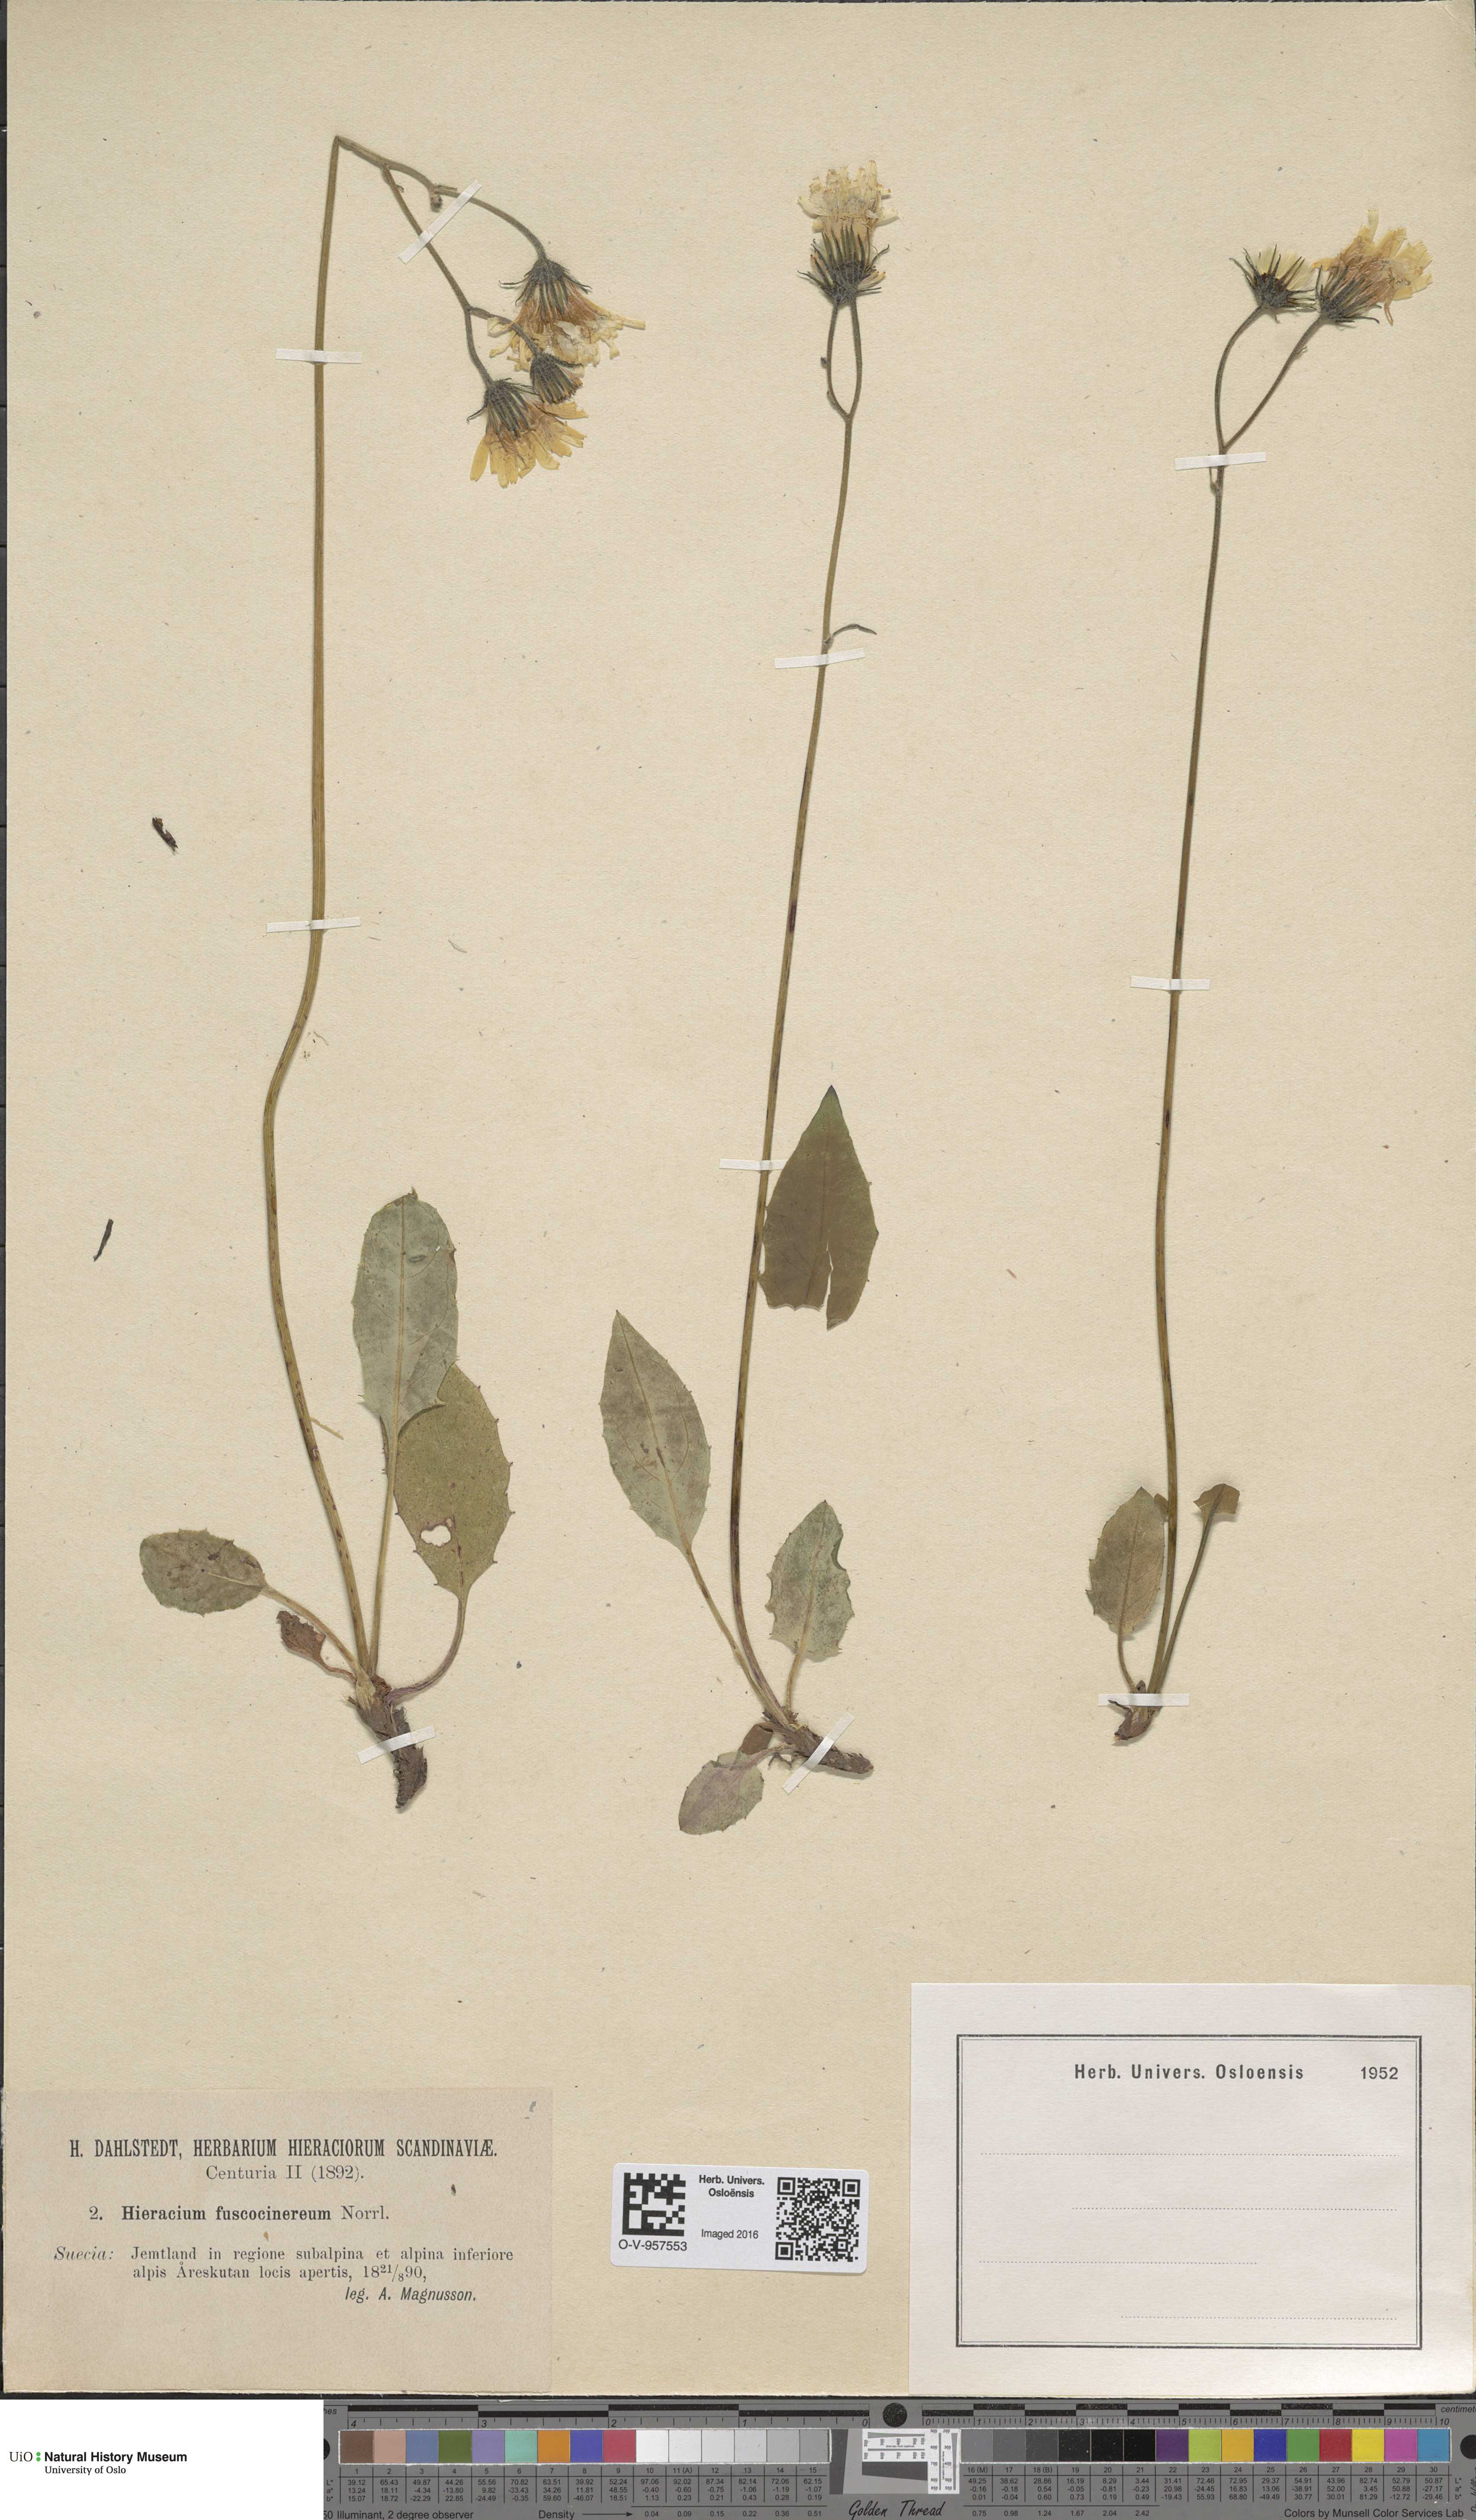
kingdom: Plantae
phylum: Tracheophyta
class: Magnoliopsida
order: Asterales
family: Asteraceae
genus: Hieracium
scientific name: Hieracium fuscocinereum
